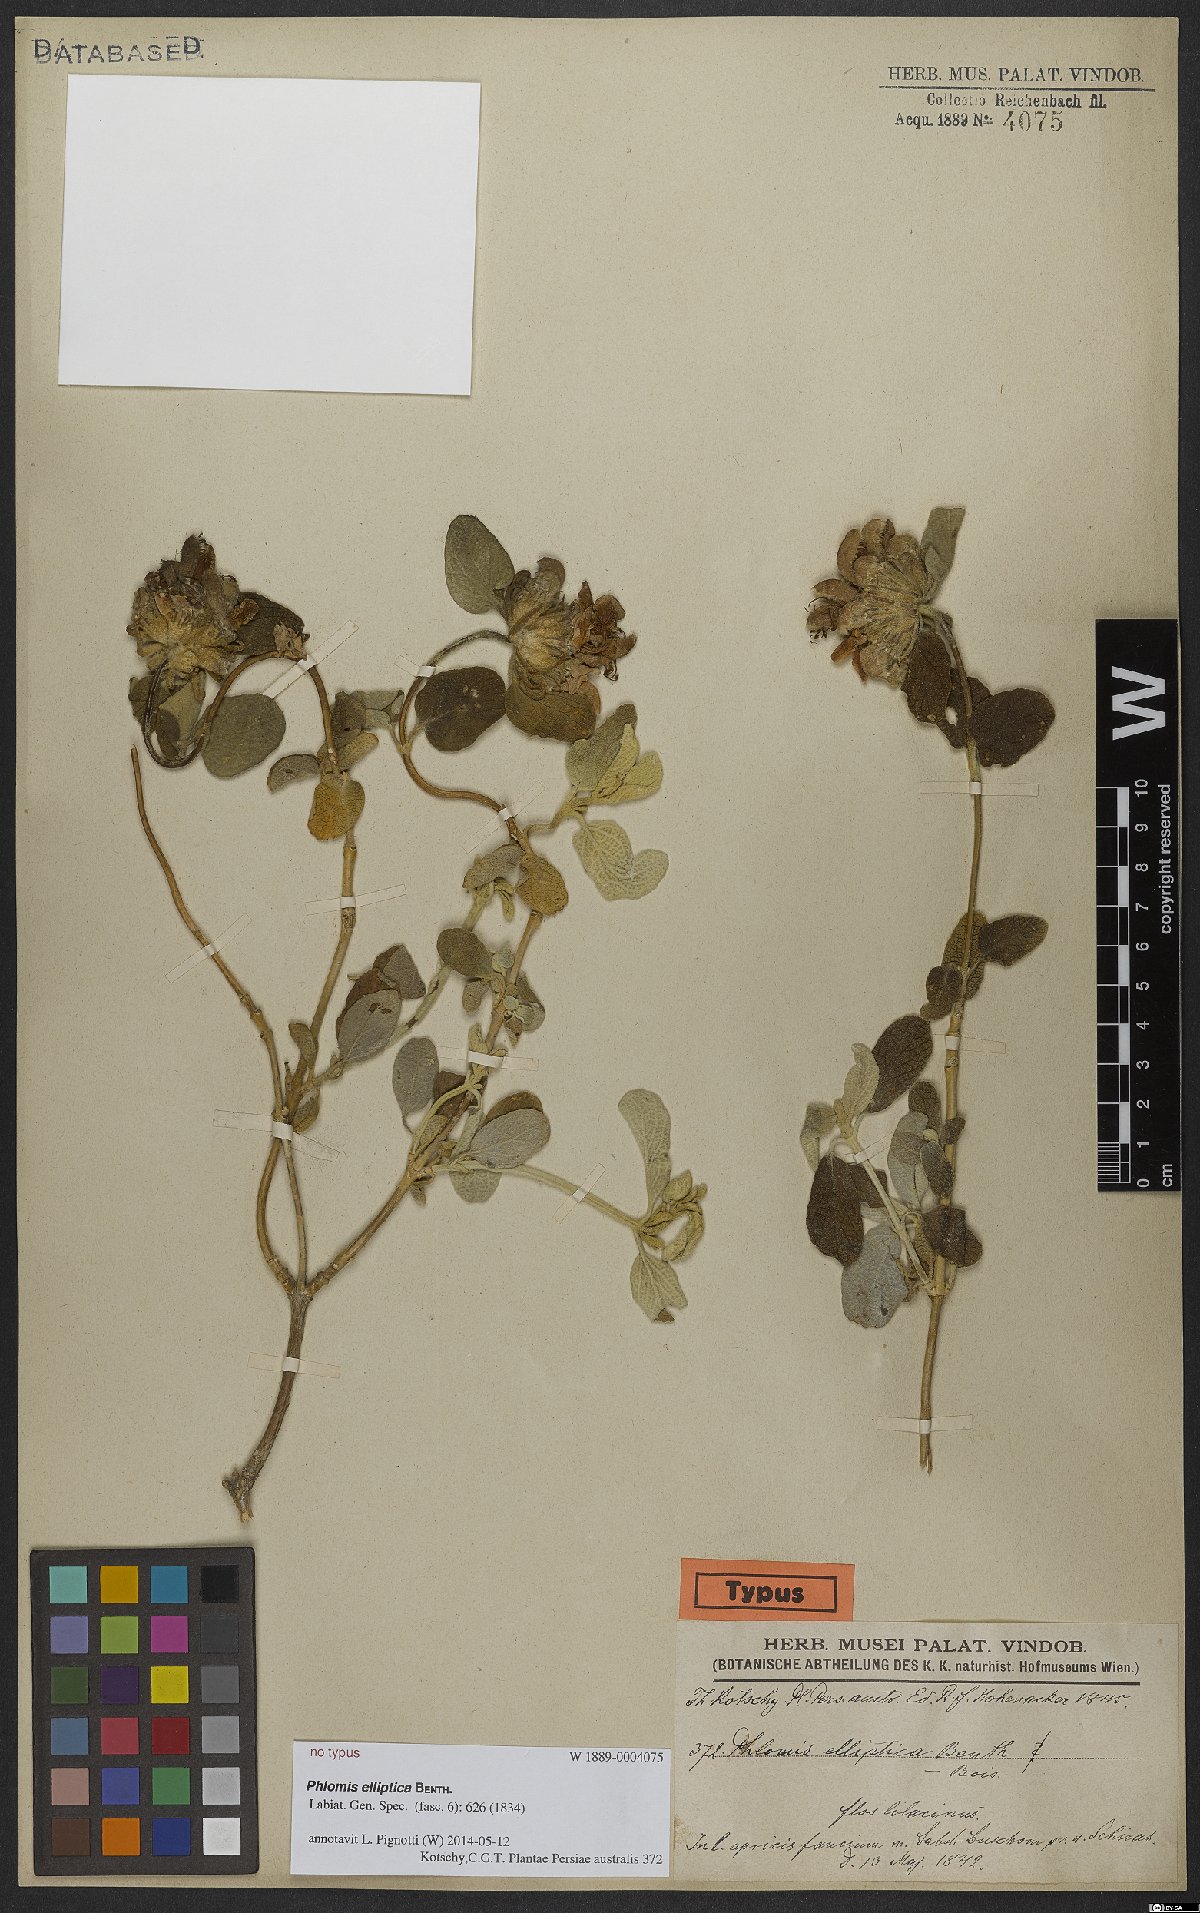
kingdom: Plantae
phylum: Tracheophyta
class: Magnoliopsida
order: Lamiales
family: Lamiaceae
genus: Phlomis
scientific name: Phlomis elliptica
